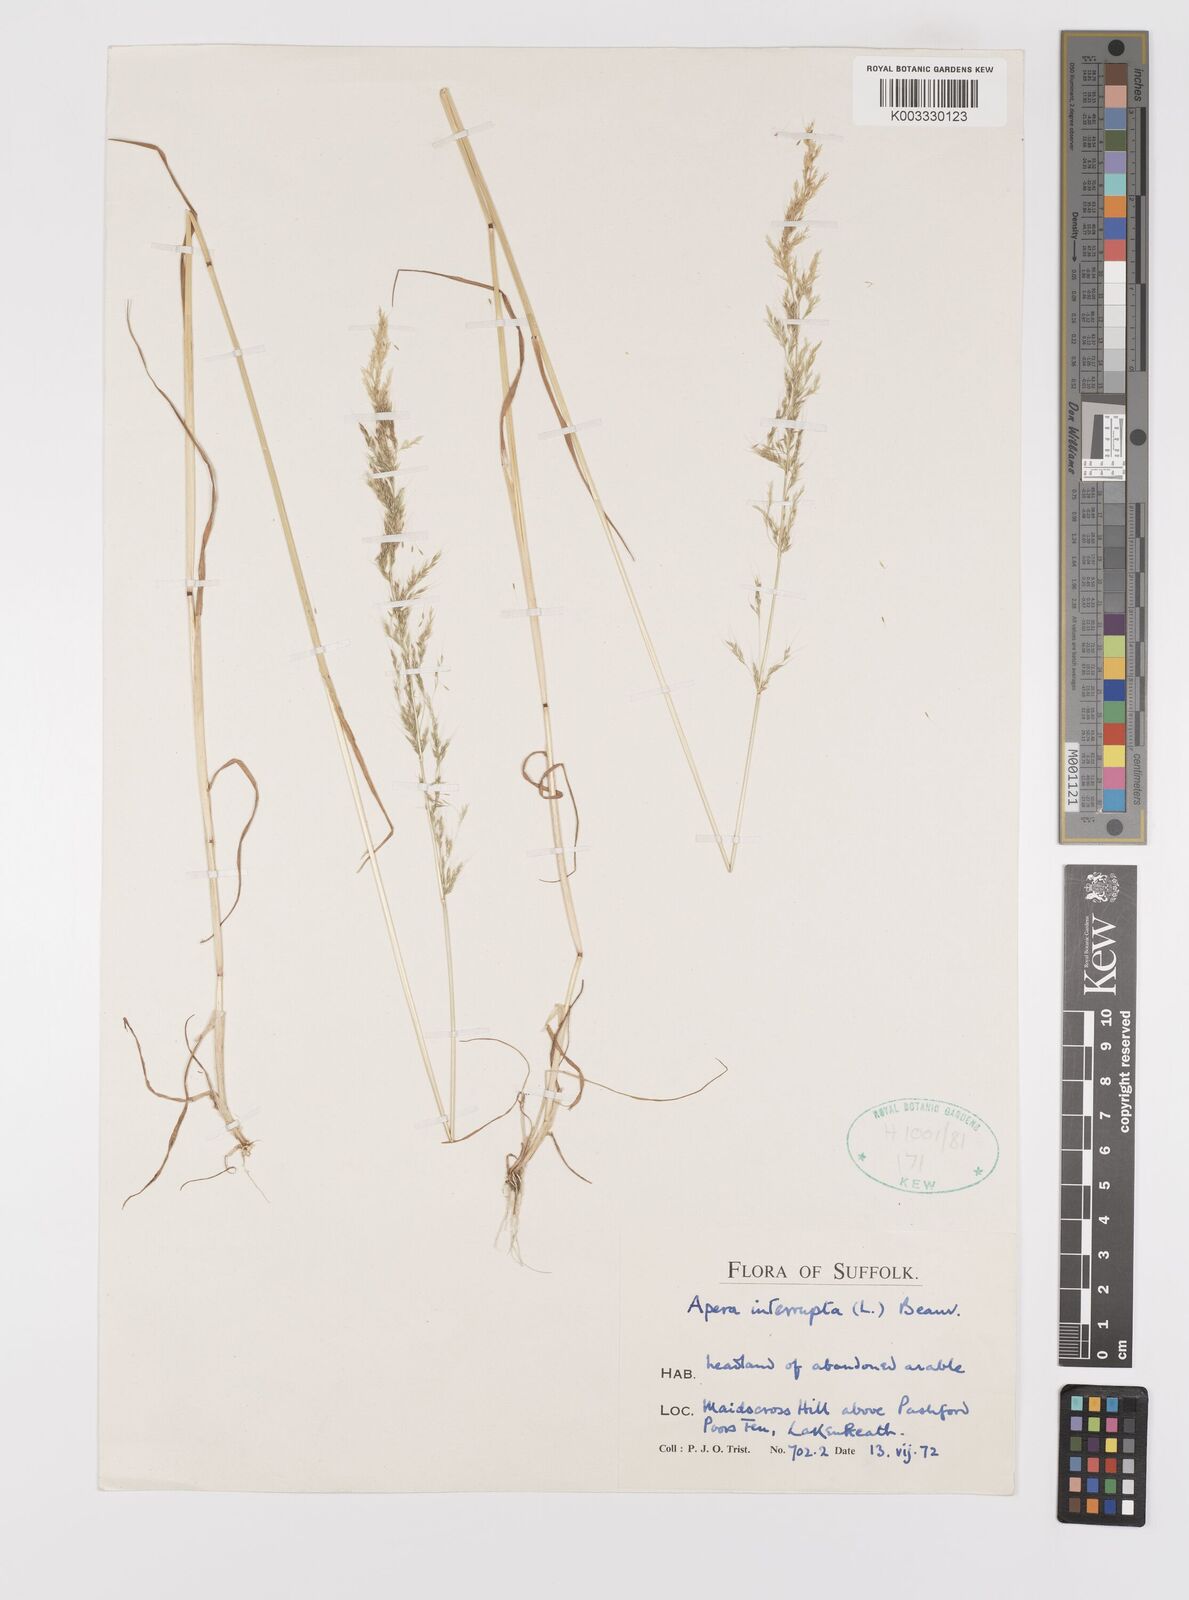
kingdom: Plantae
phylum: Tracheophyta
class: Liliopsida
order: Poales
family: Poaceae
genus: Apera
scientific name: Apera interrupta
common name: Dense silky-bent
